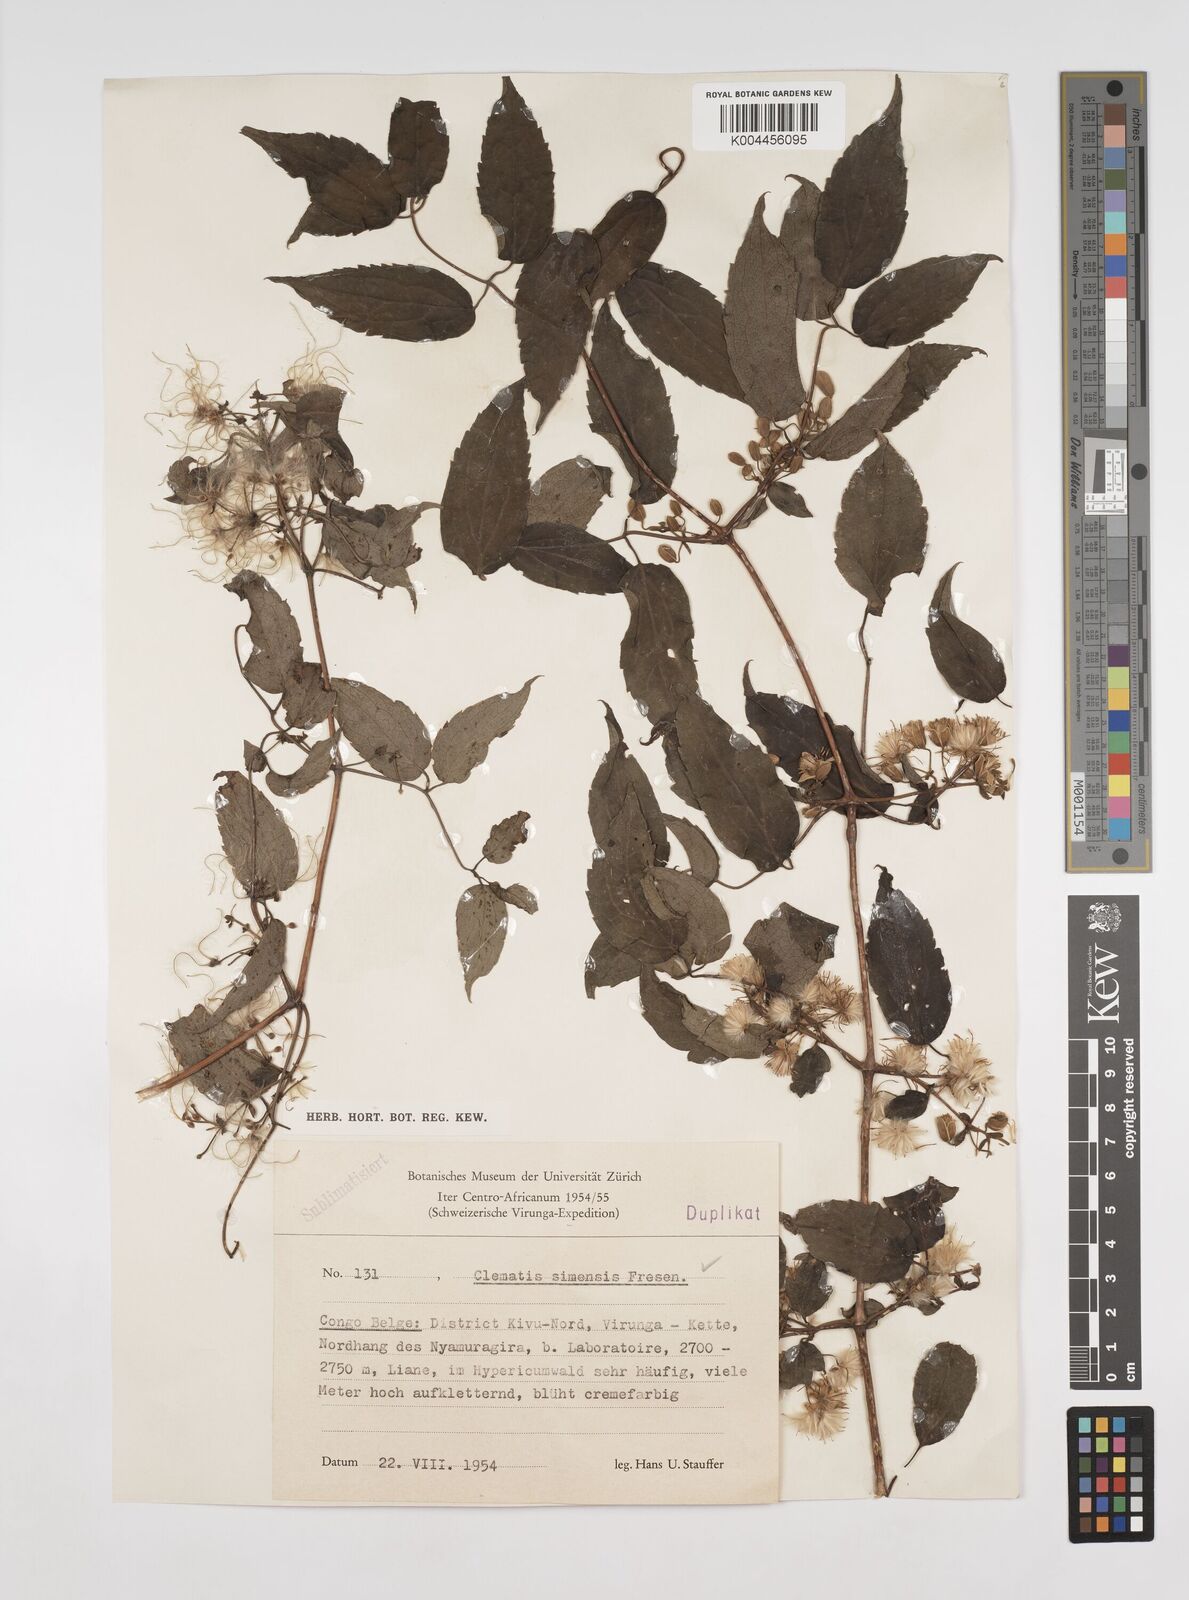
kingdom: Plantae
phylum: Tracheophyta
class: Magnoliopsida
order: Ranunculales
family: Ranunculaceae
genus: Clematis
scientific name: Clematis simensis
